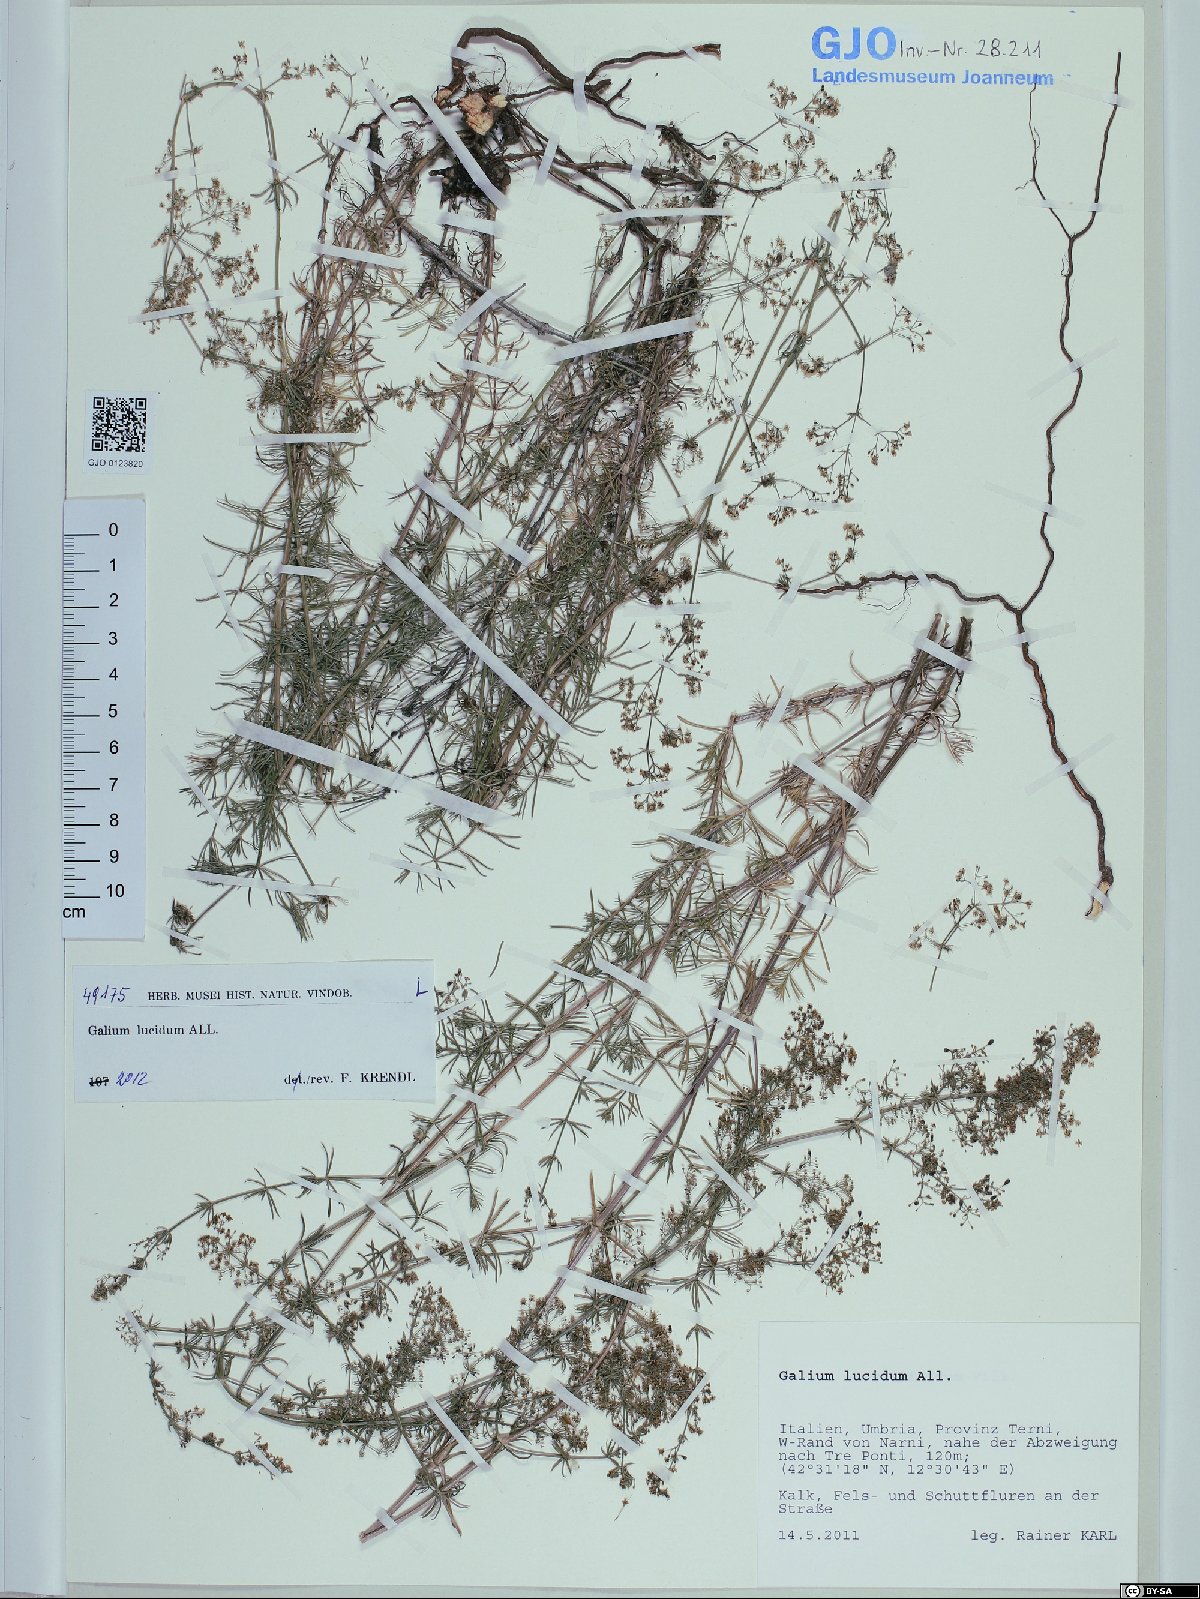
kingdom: Plantae
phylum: Tracheophyta
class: Magnoliopsida
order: Gentianales
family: Rubiaceae
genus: Galium
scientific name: Galium lucidum
